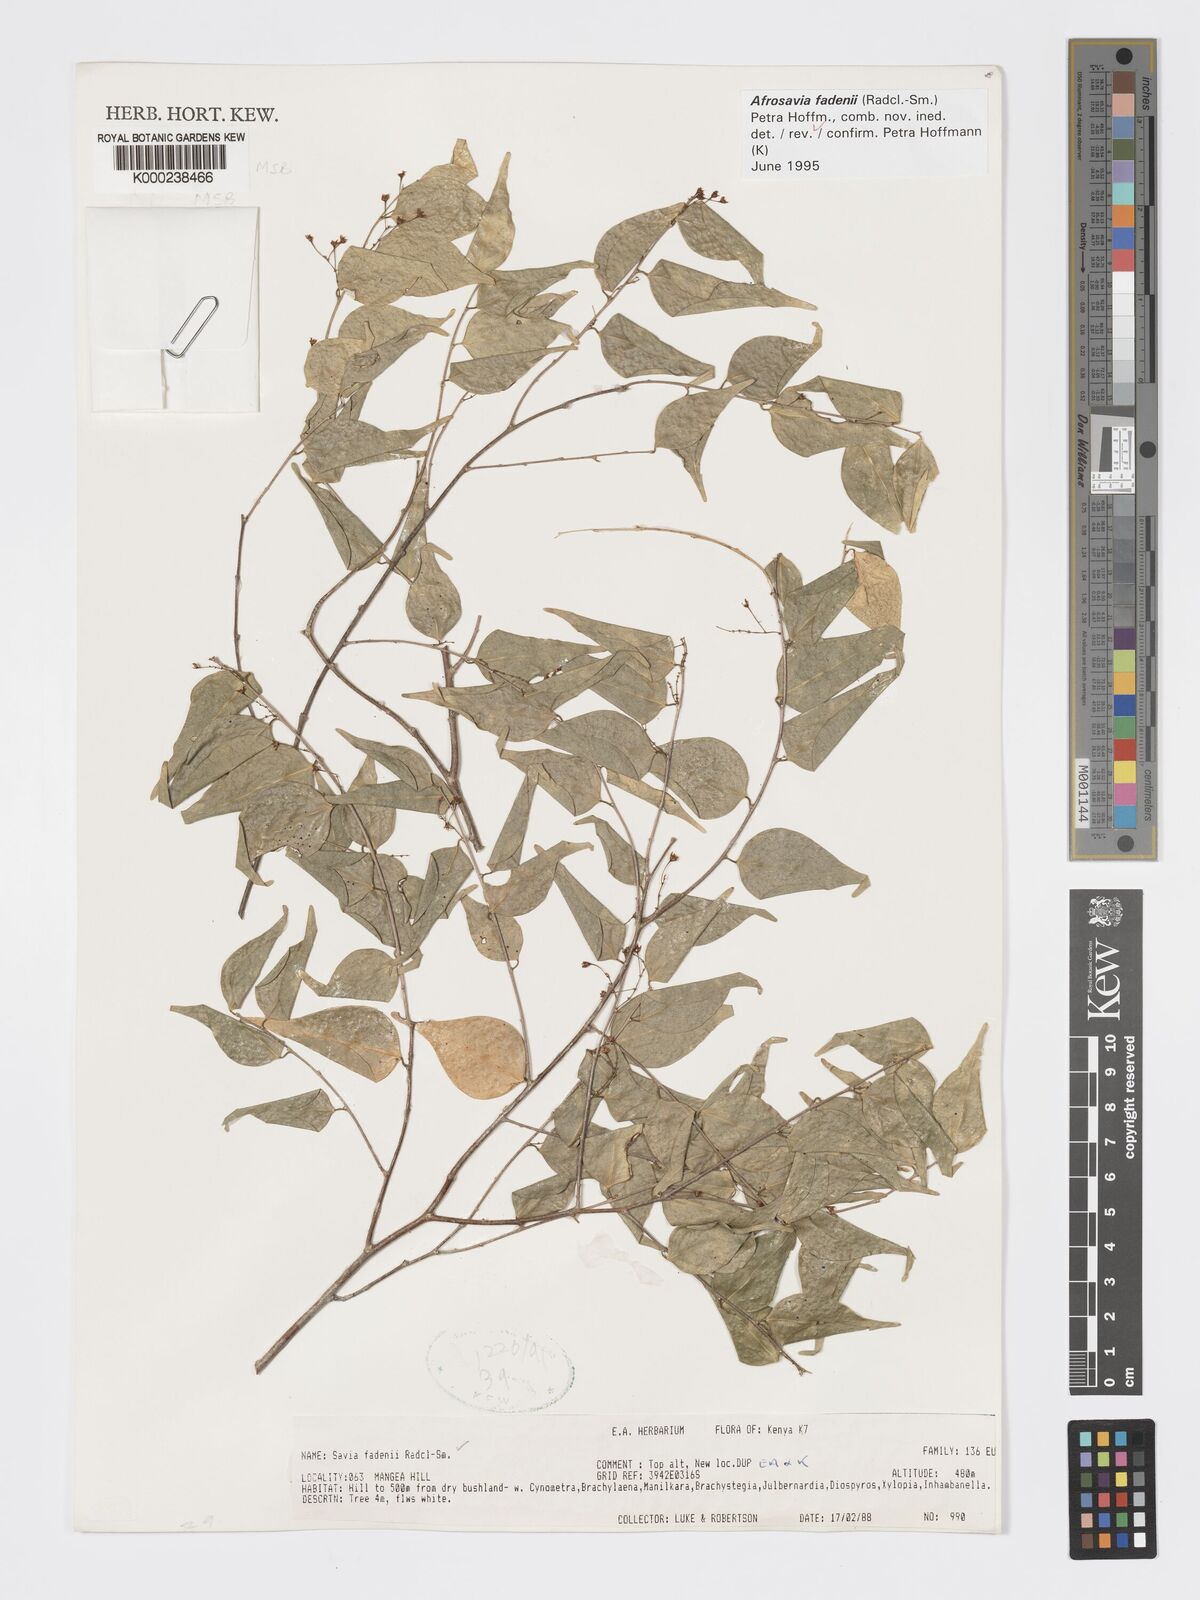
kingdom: Plantae
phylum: Tracheophyta
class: Magnoliopsida
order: Malpighiales
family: Phyllanthaceae
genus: Wielandia
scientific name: Wielandia fadenii
